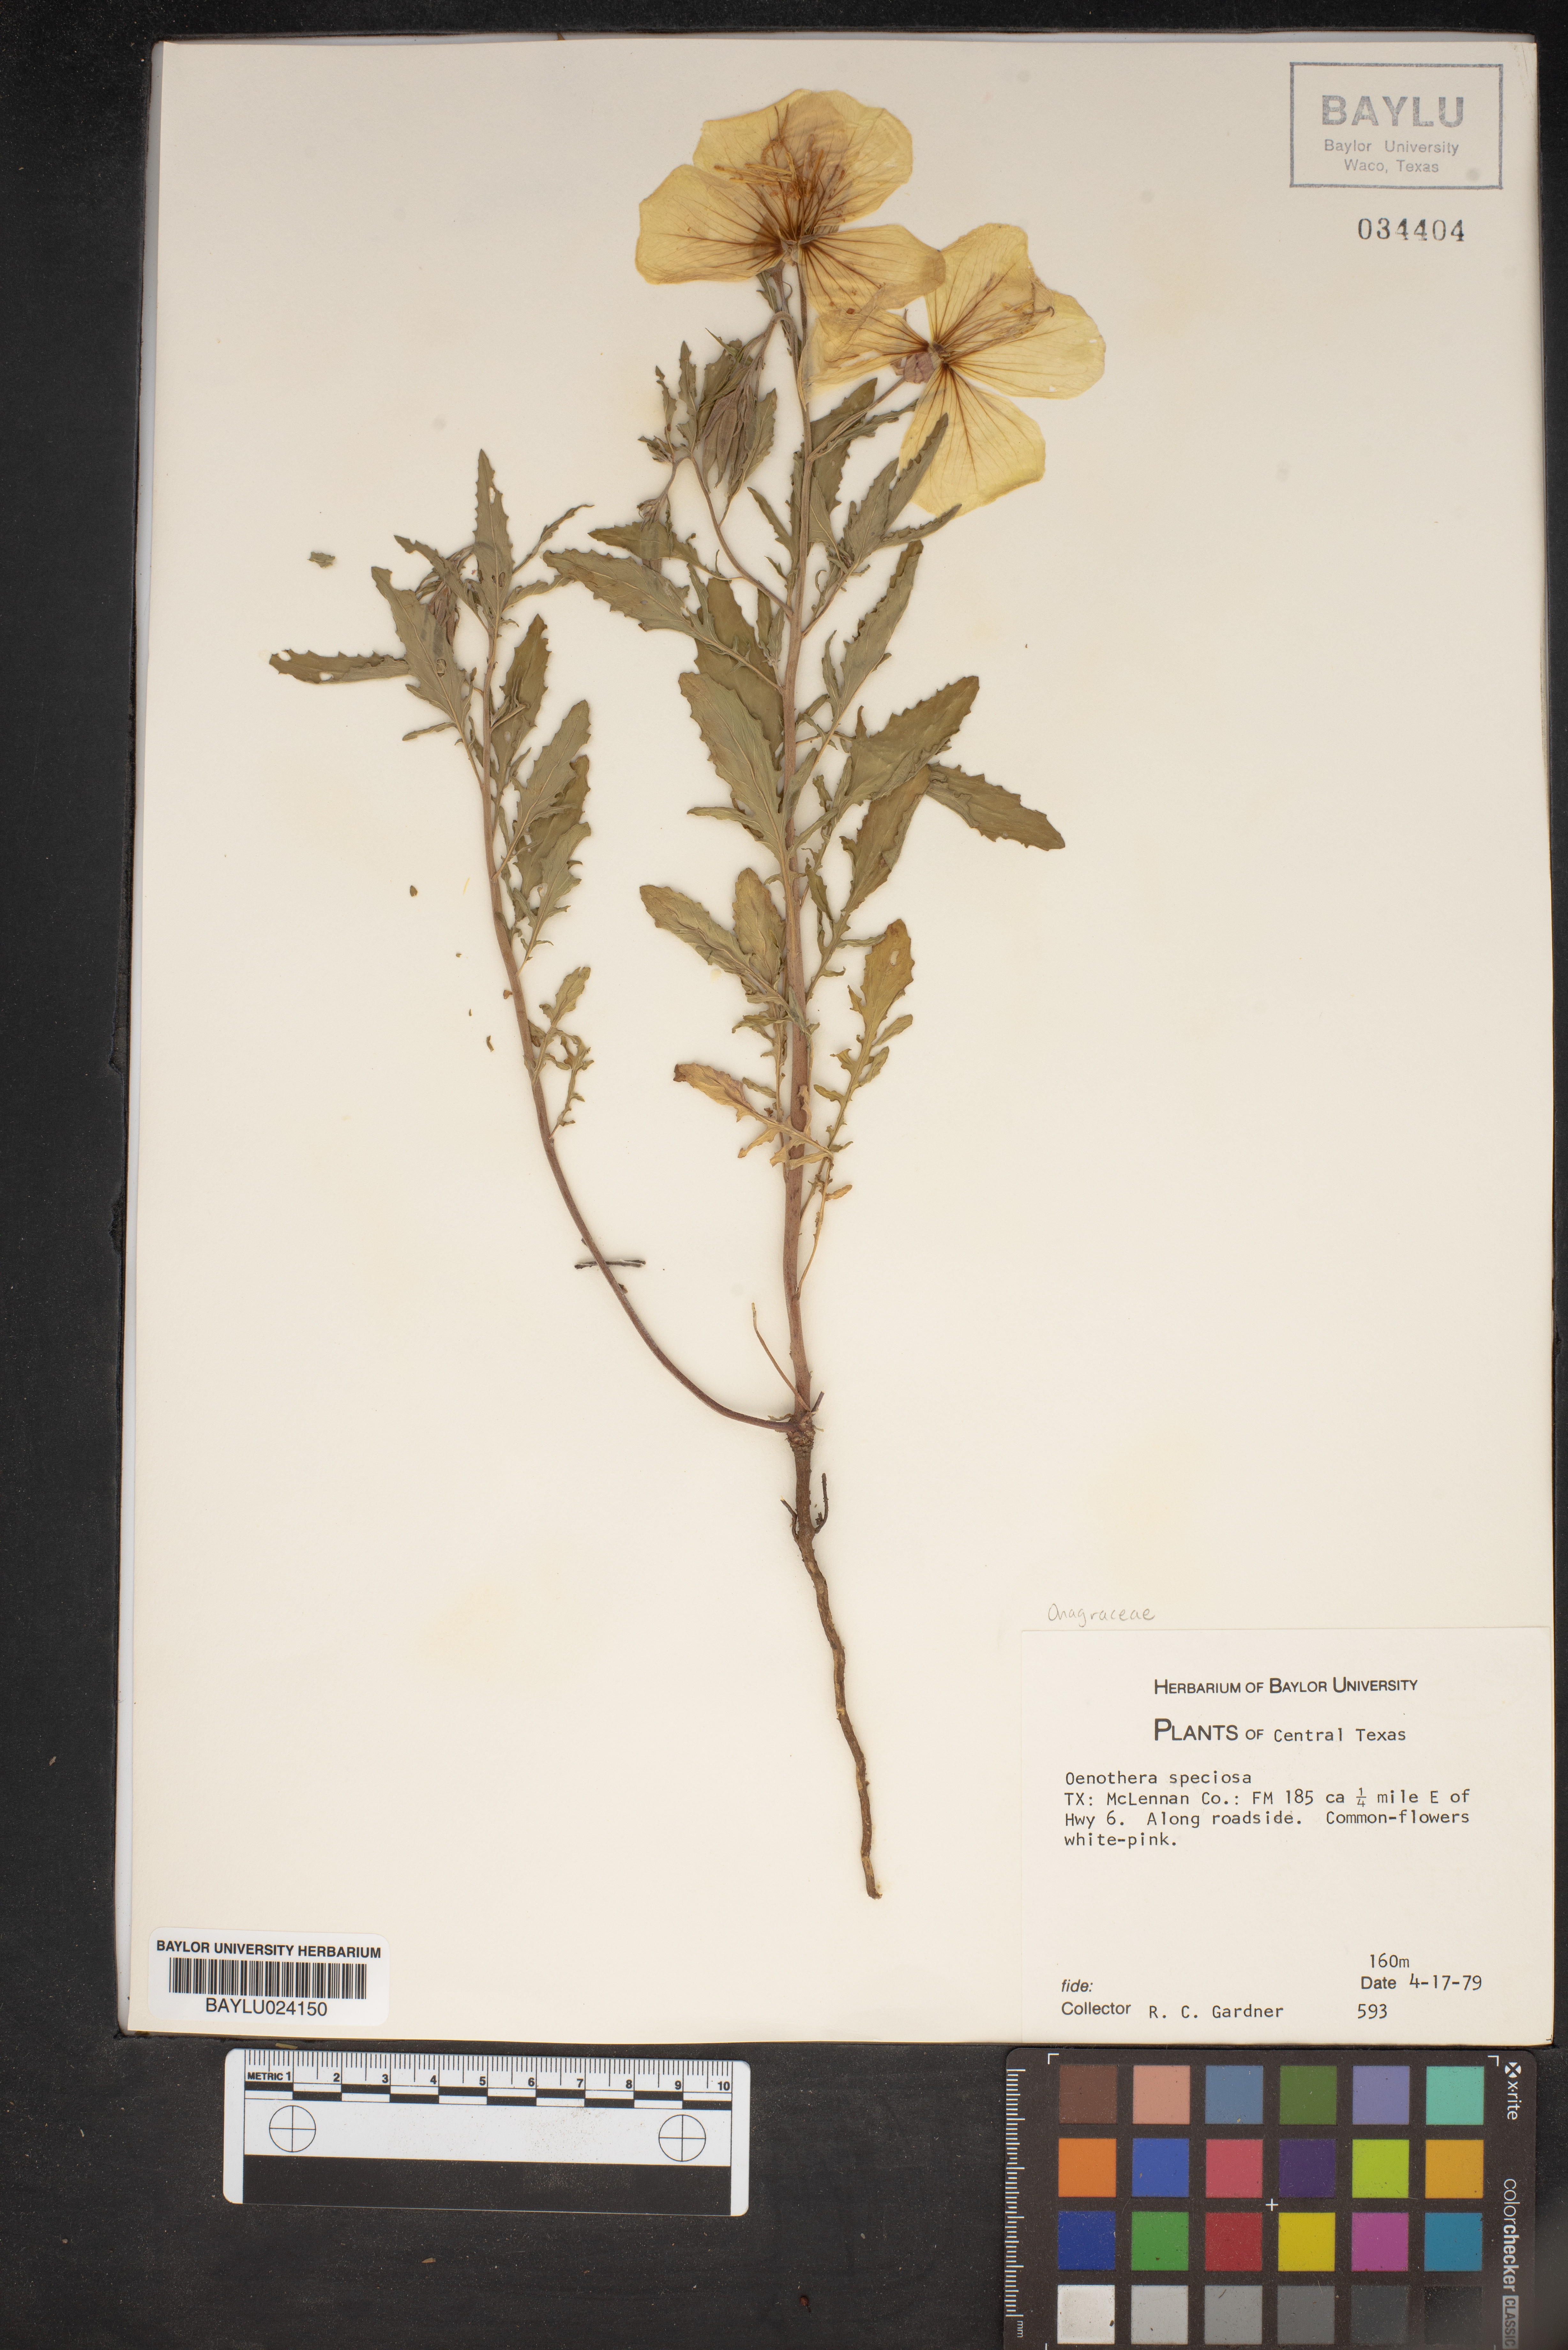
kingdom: Plantae
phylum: Tracheophyta
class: Magnoliopsida
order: Myrtales
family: Onagraceae
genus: Oenothera
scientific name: Oenothera speciosa
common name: White evening-primrose
